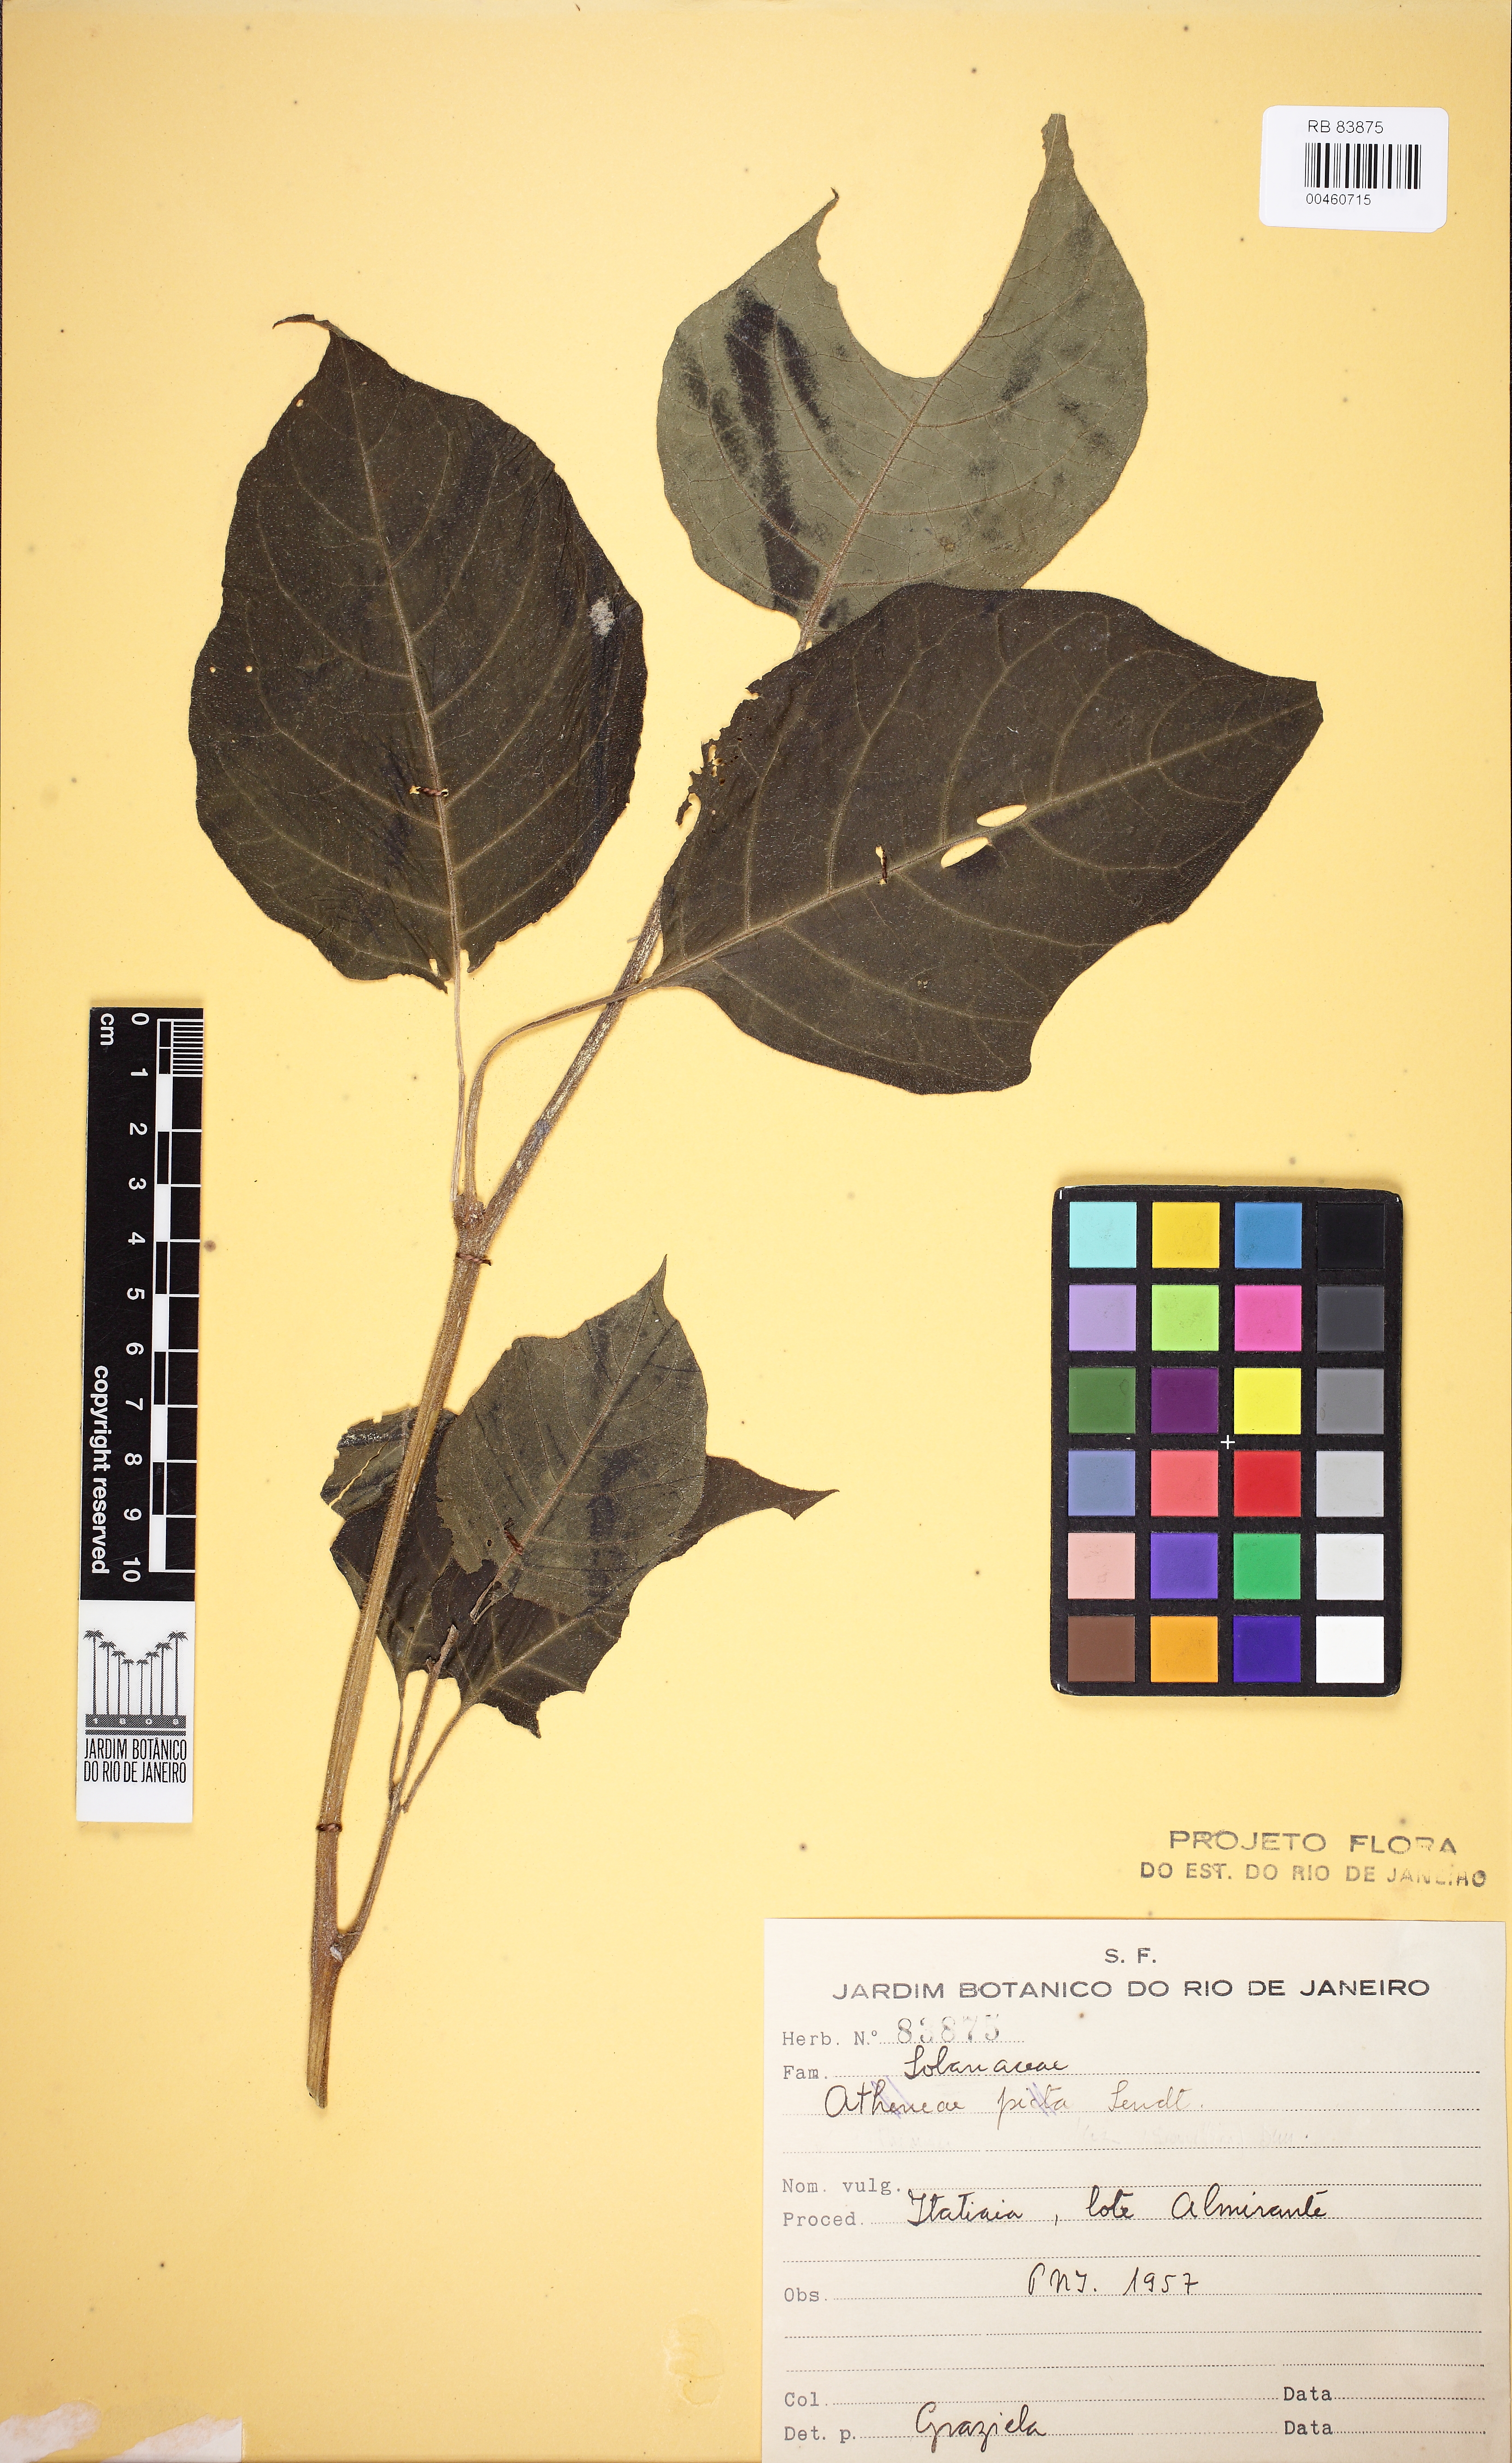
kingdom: Plantae
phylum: Tracheophyta
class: Magnoliopsida
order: Solanales
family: Solanaceae
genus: Athenaea
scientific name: Athenaea picta
